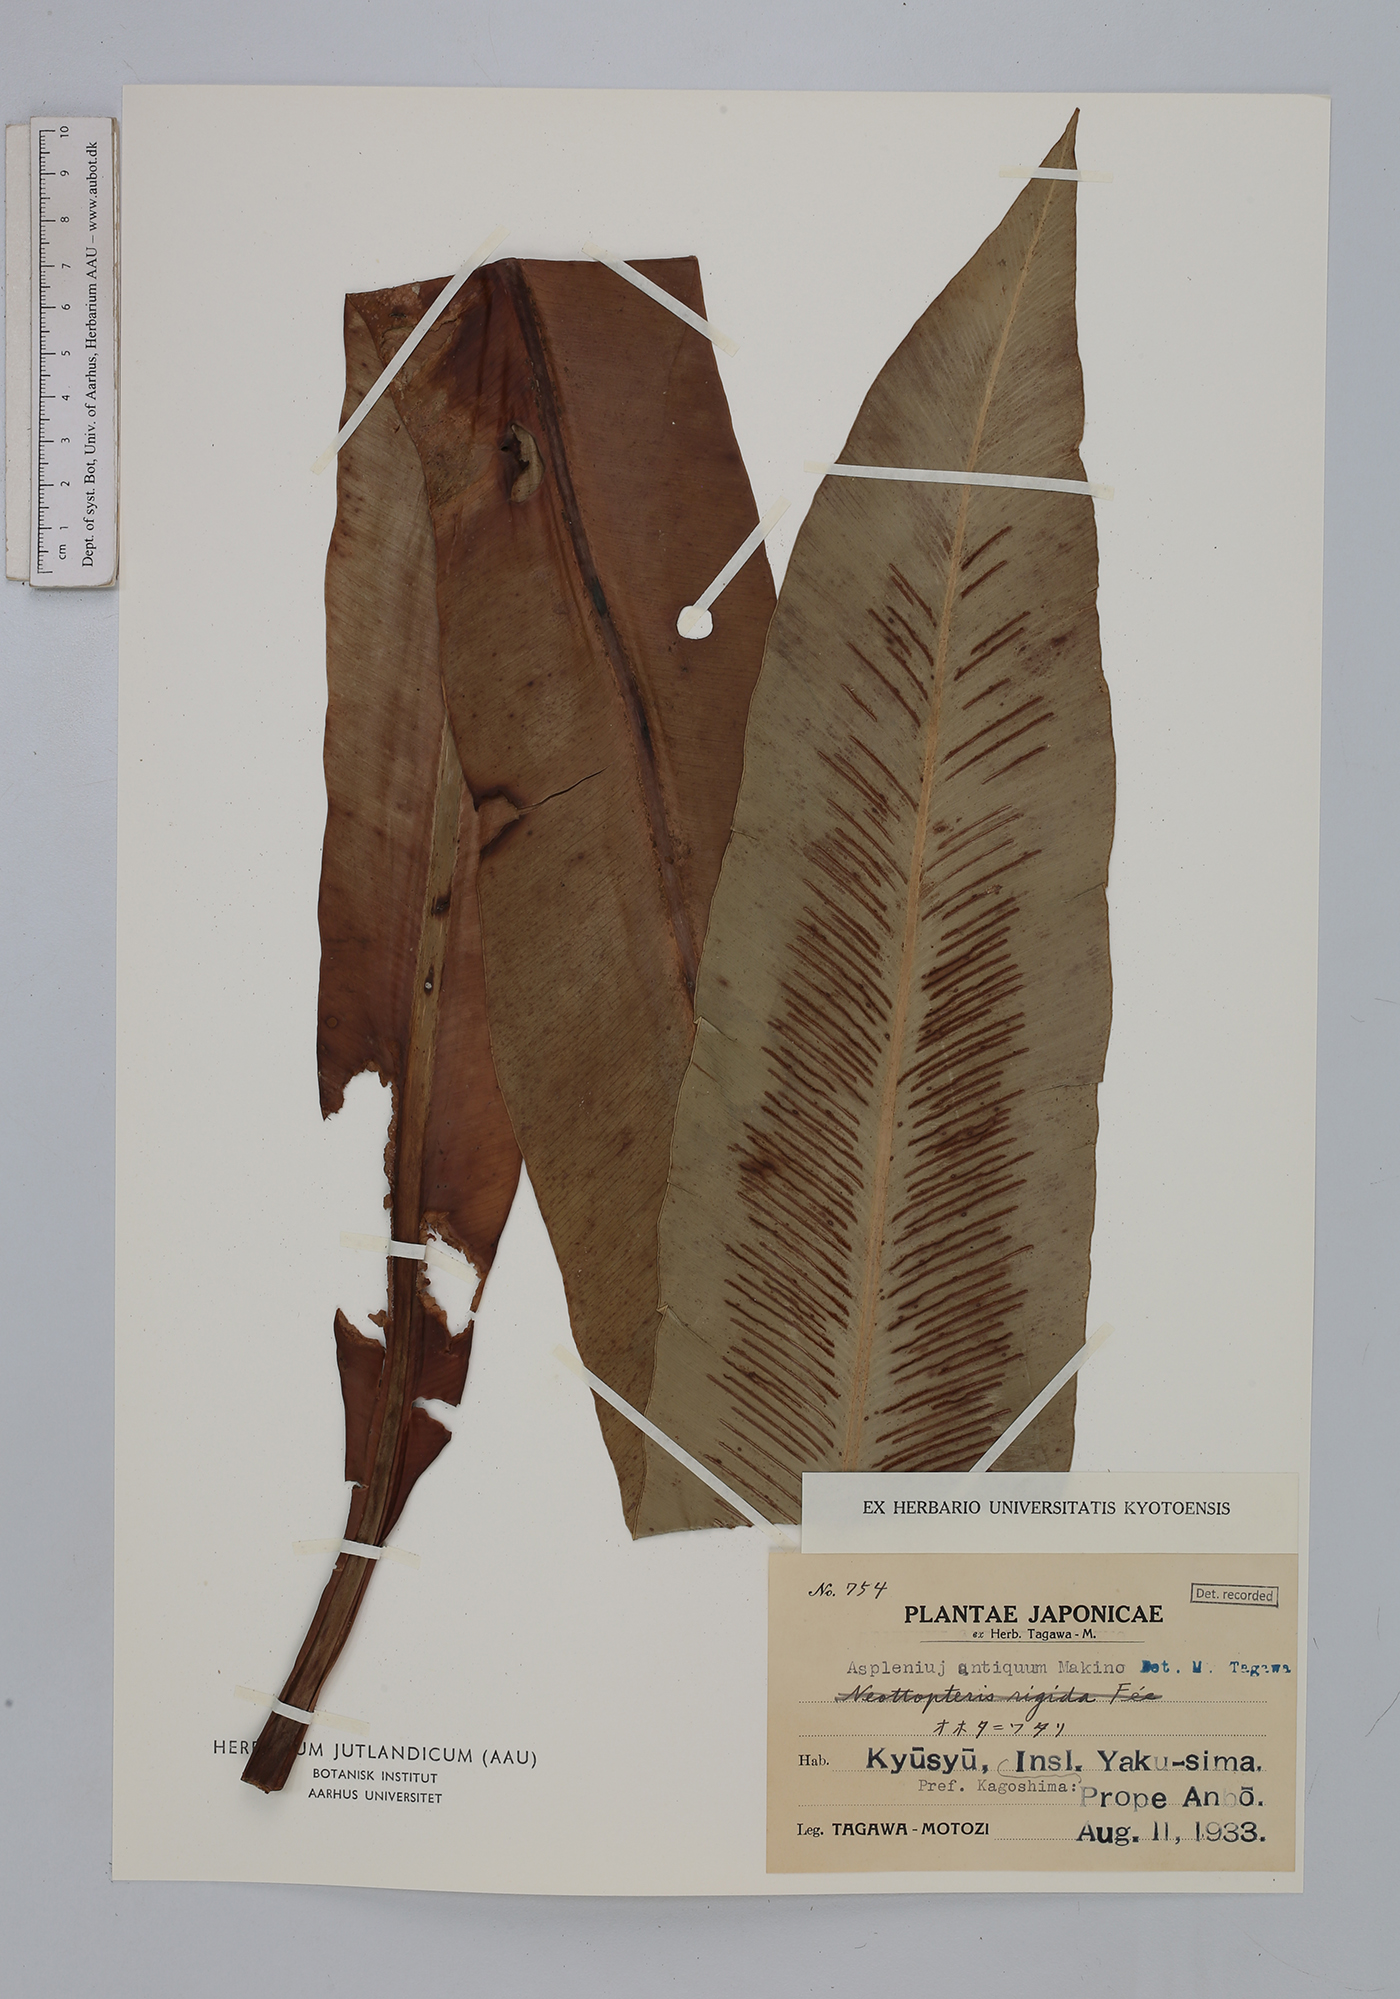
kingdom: Plantae
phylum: Tracheophyta
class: Polypodiopsida
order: Polypodiales
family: Aspleniaceae
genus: Asplenium
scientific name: Asplenium antiquum
